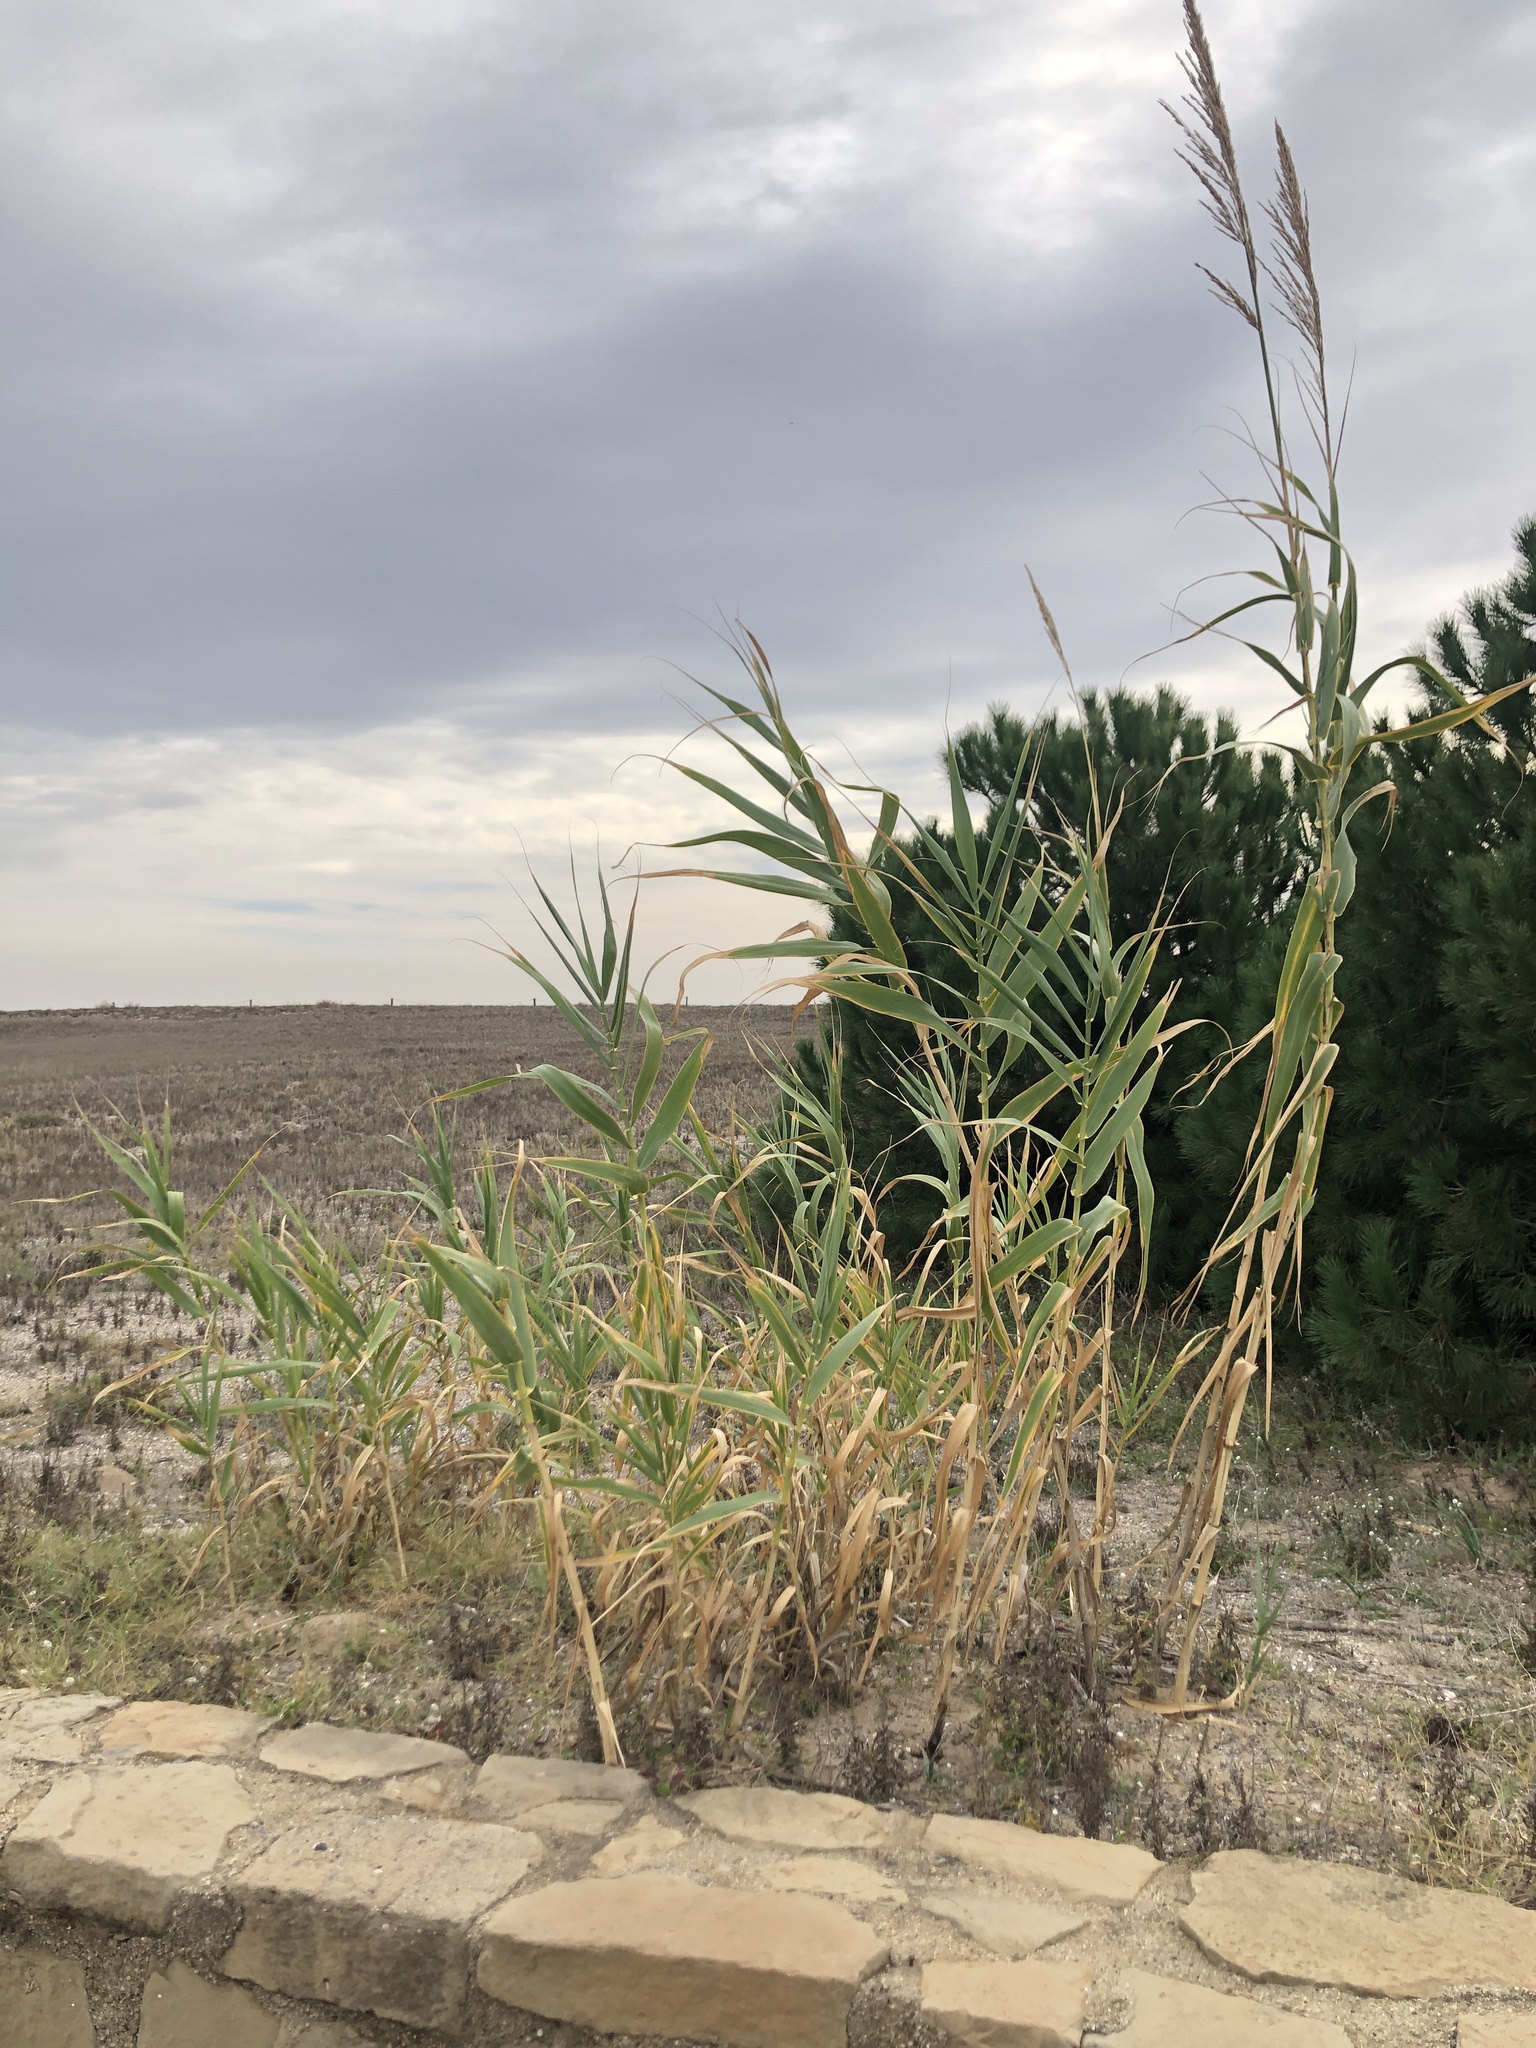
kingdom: Plantae
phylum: Tracheophyta
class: Liliopsida
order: Poales
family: Poaceae
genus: Arundo
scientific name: Arundo donax
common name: Giant reed
